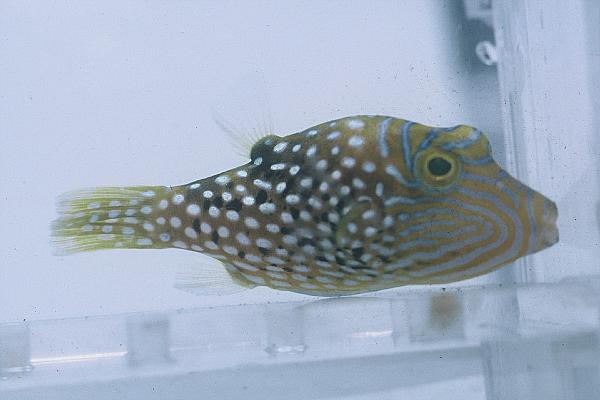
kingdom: Animalia
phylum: Chordata
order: Tetraodontiformes
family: Tetraodontidae
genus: Canthigaster
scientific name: Canthigaster solandri
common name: False-eye toby
